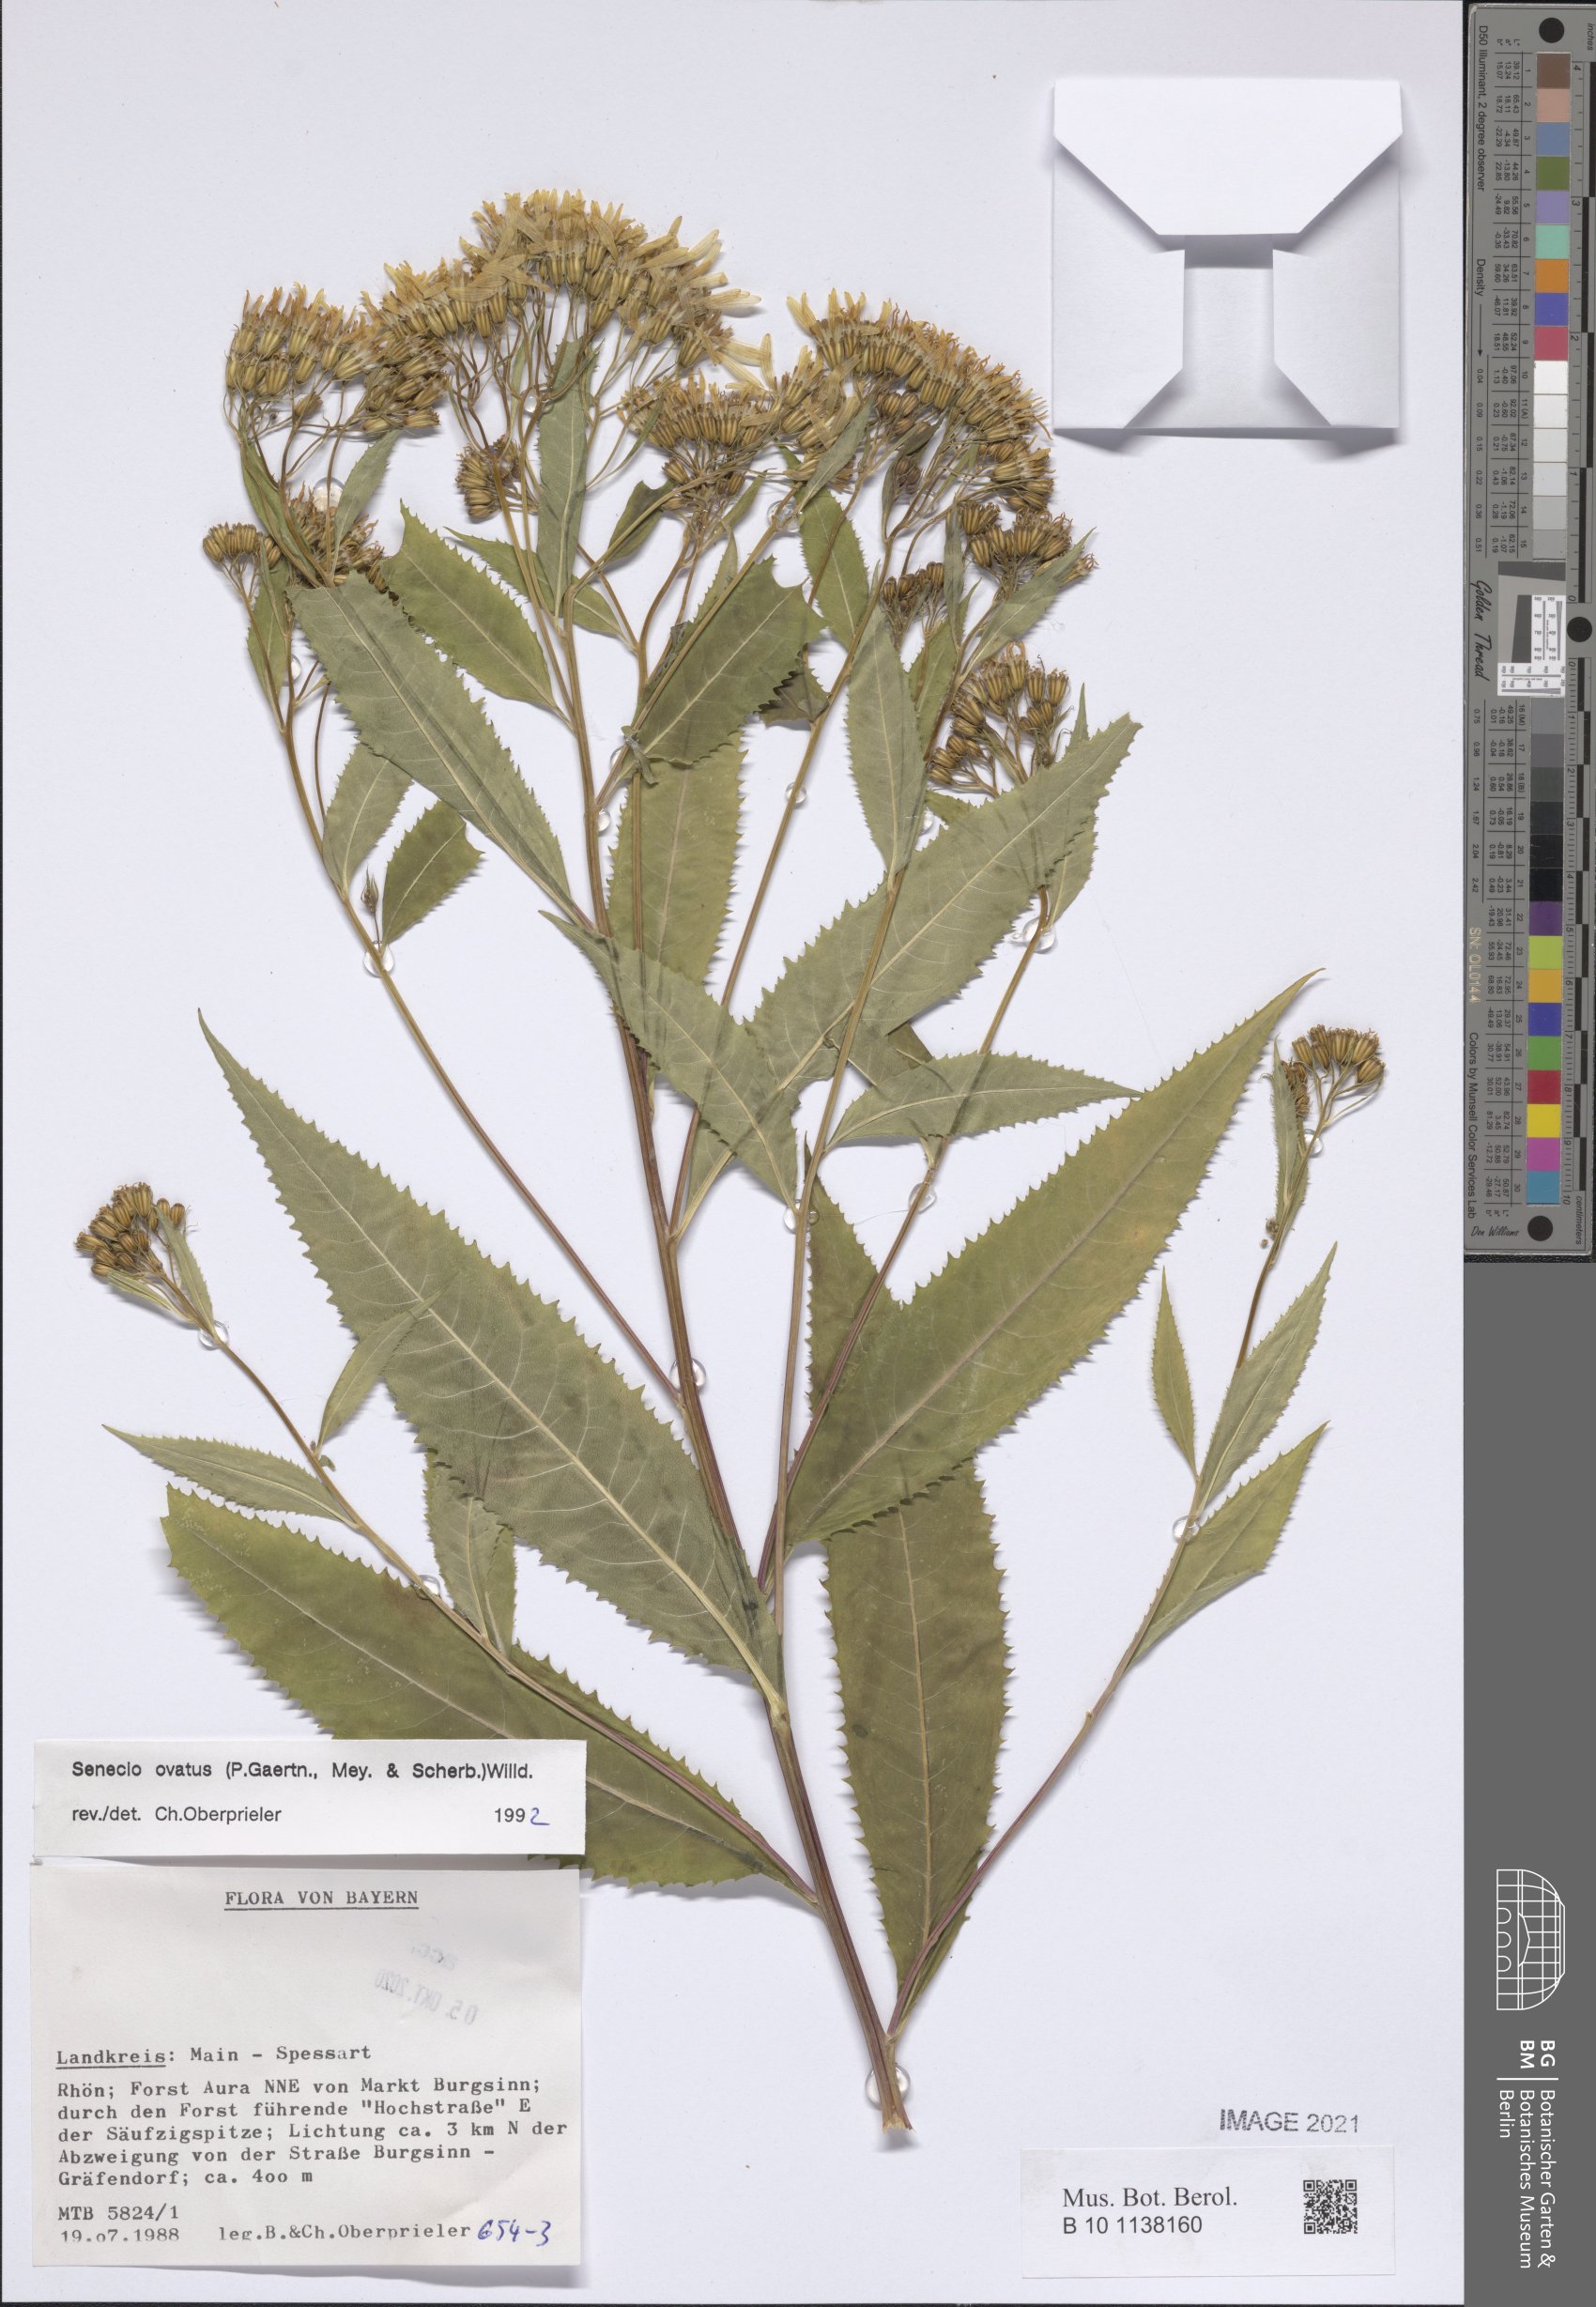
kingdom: Plantae
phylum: Tracheophyta
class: Magnoliopsida
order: Asterales
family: Asteraceae
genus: Senecio
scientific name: Senecio ovatus
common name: Wood ragwort
